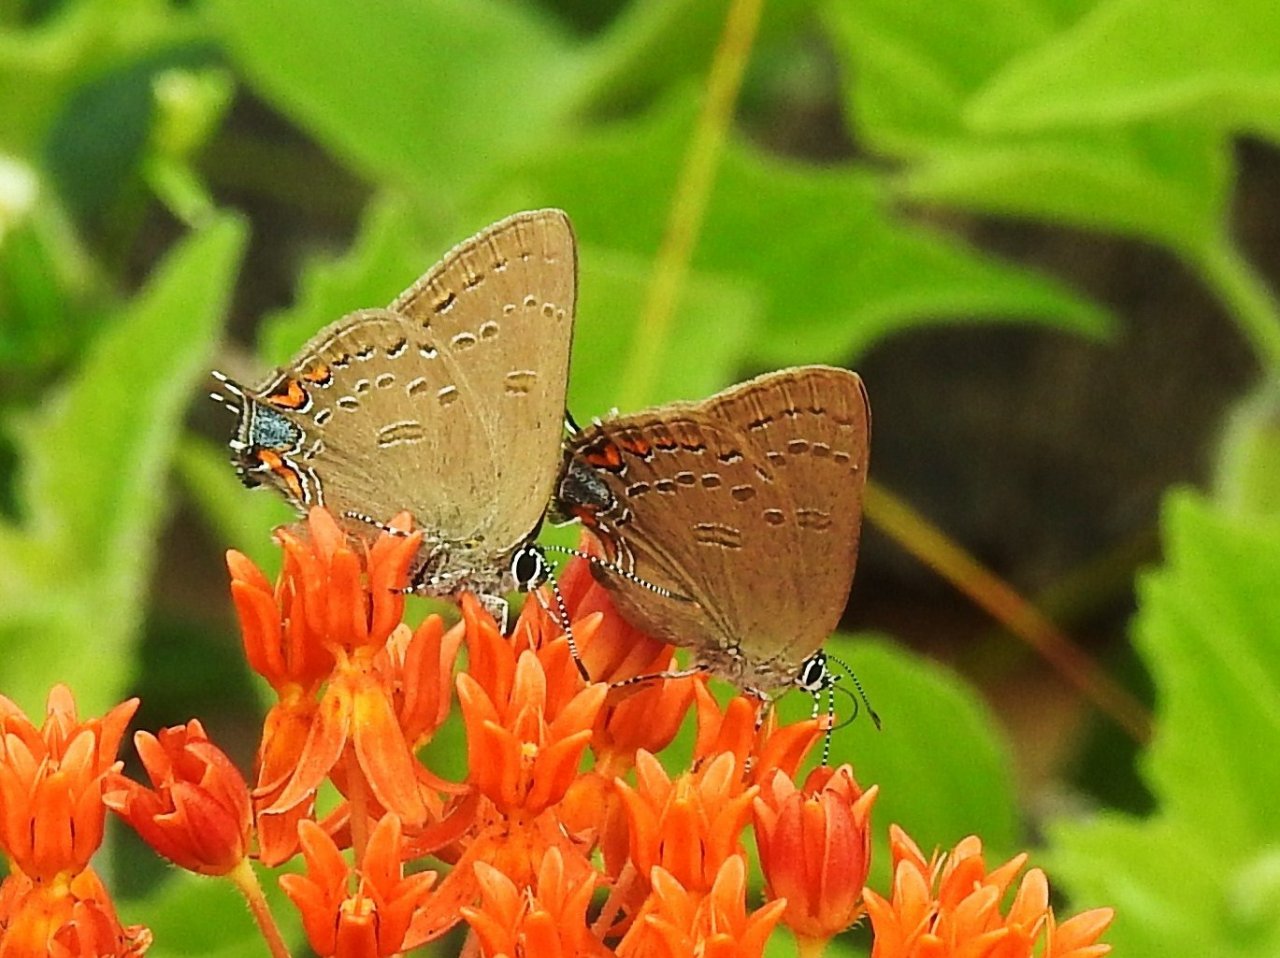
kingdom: Animalia
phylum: Arthropoda
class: Insecta
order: Lepidoptera
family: Lycaenidae
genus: Satyrium
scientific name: Satyrium edwardsii
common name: Edwards' Hairstreak
